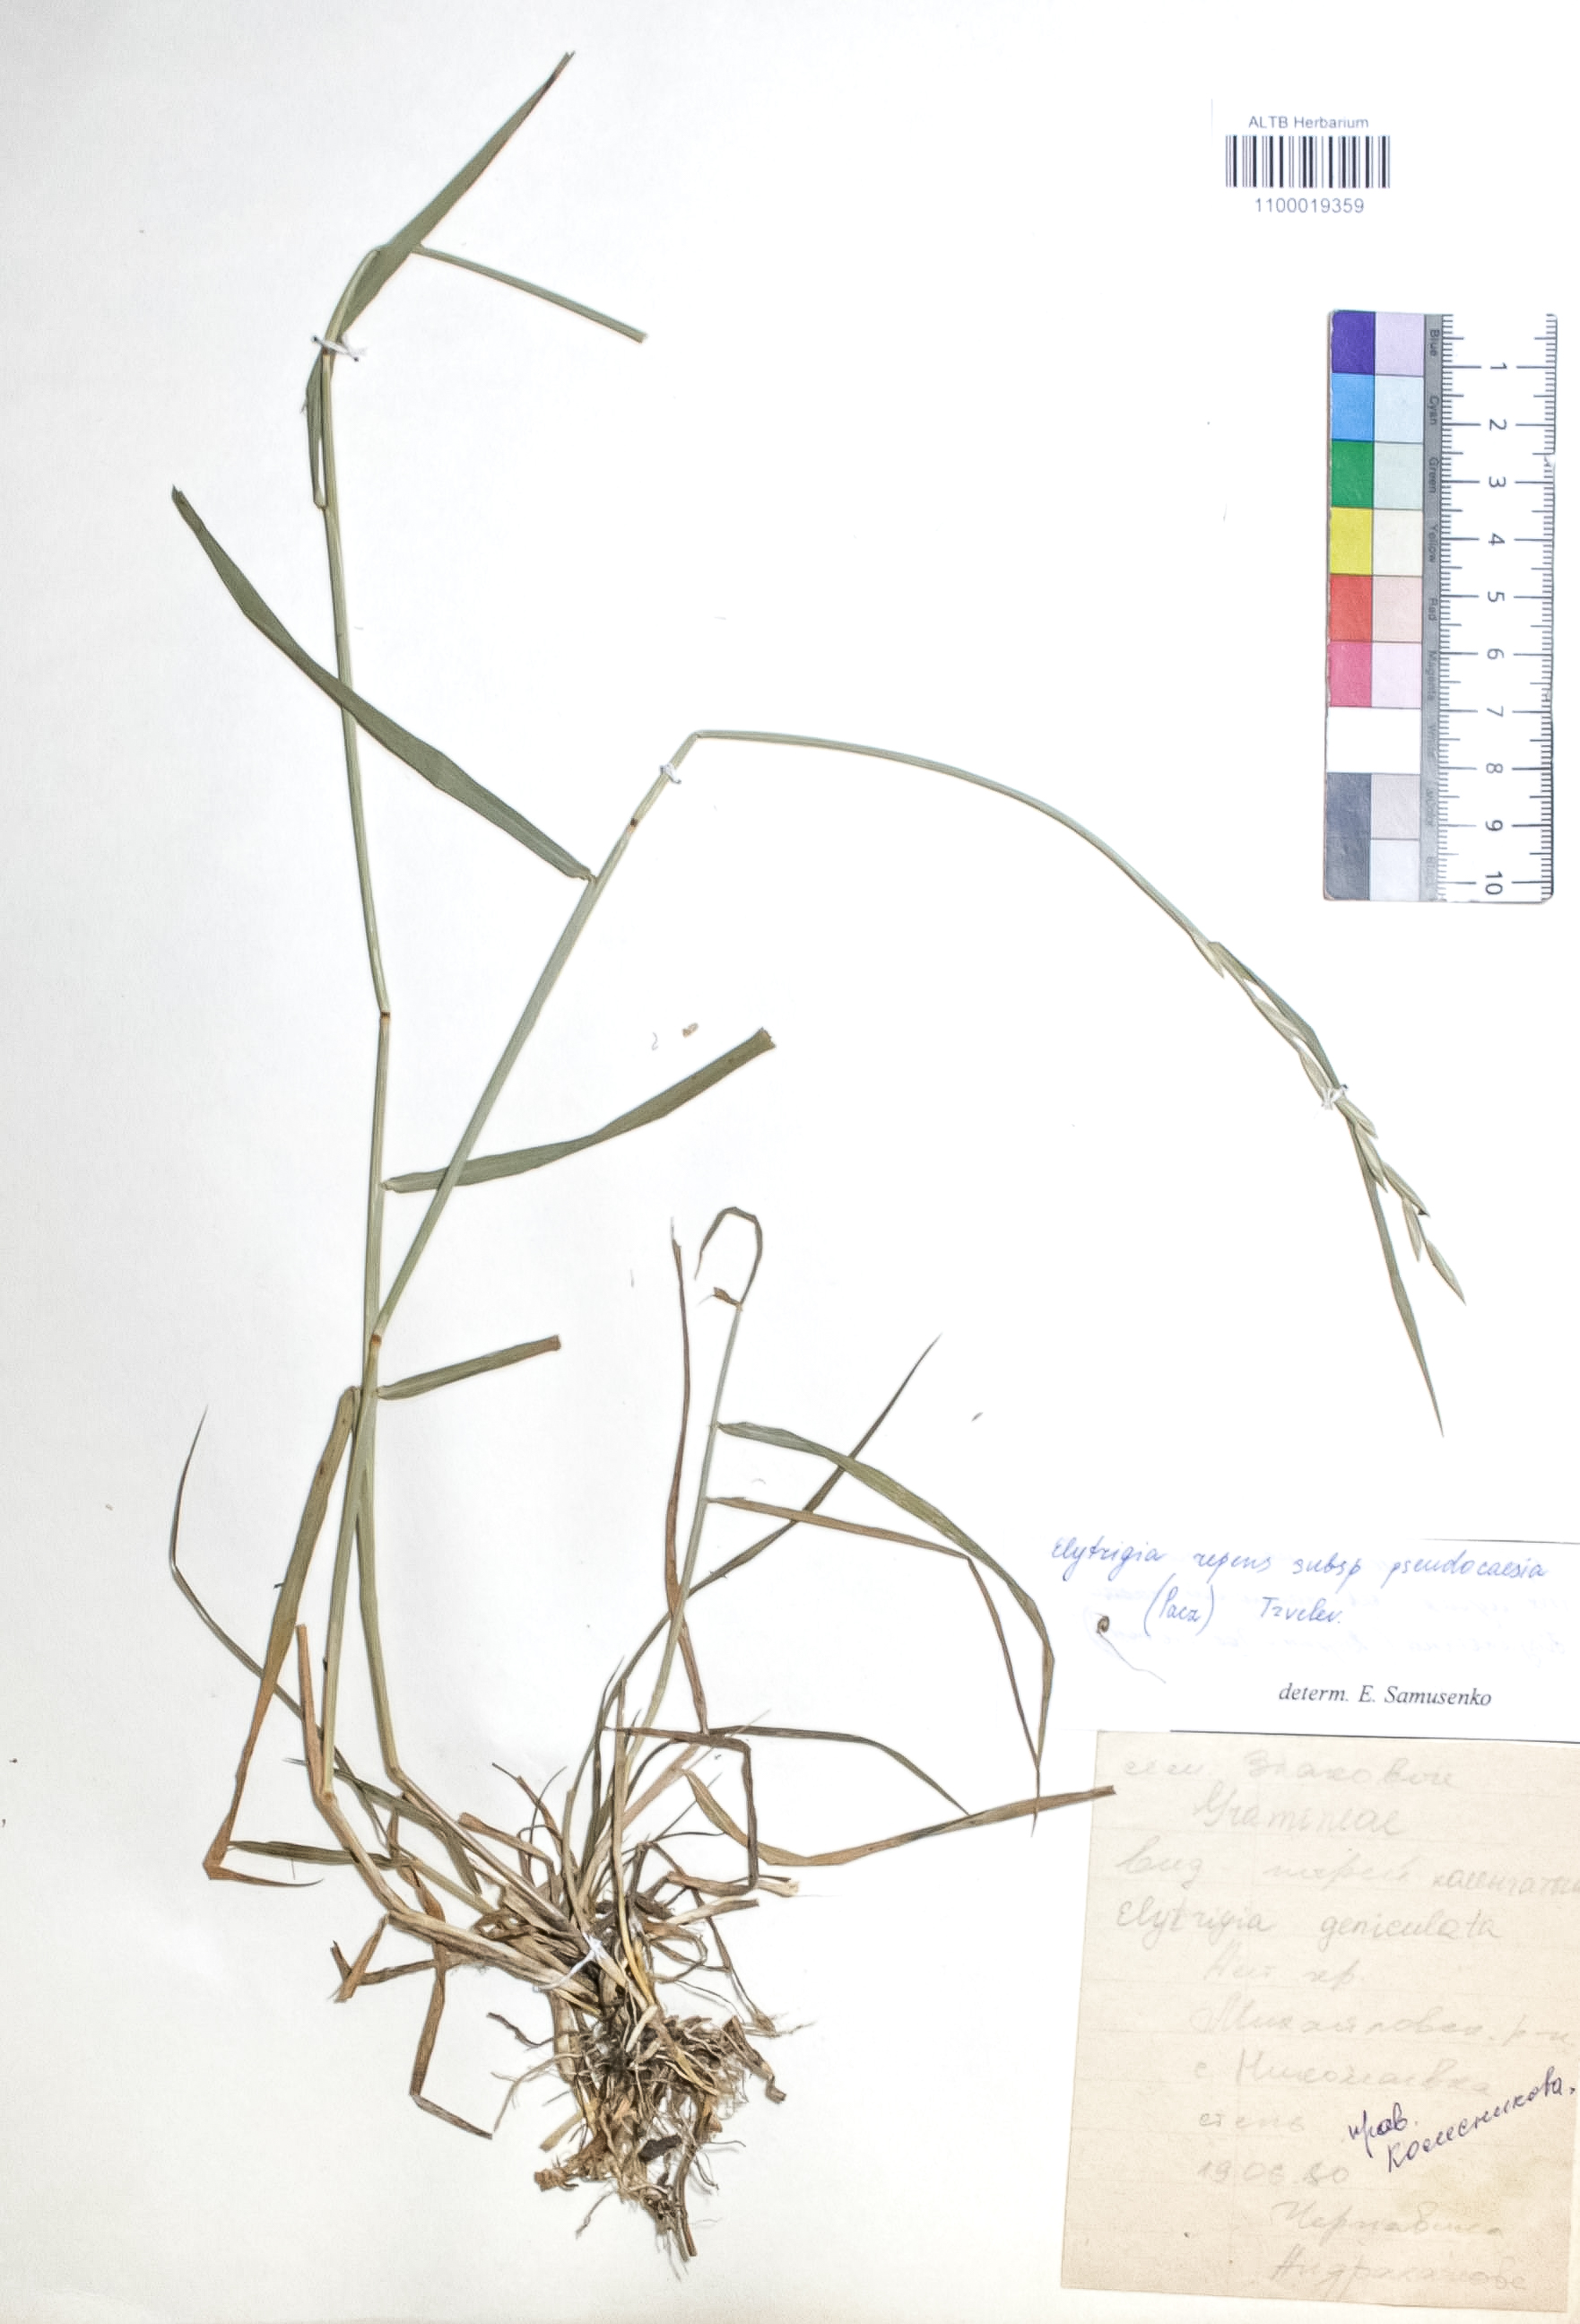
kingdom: Plantae
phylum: Tracheophyta
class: Liliopsida
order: Poales
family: Poaceae
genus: Elymus
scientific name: Elymus repens
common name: Quackgrass
